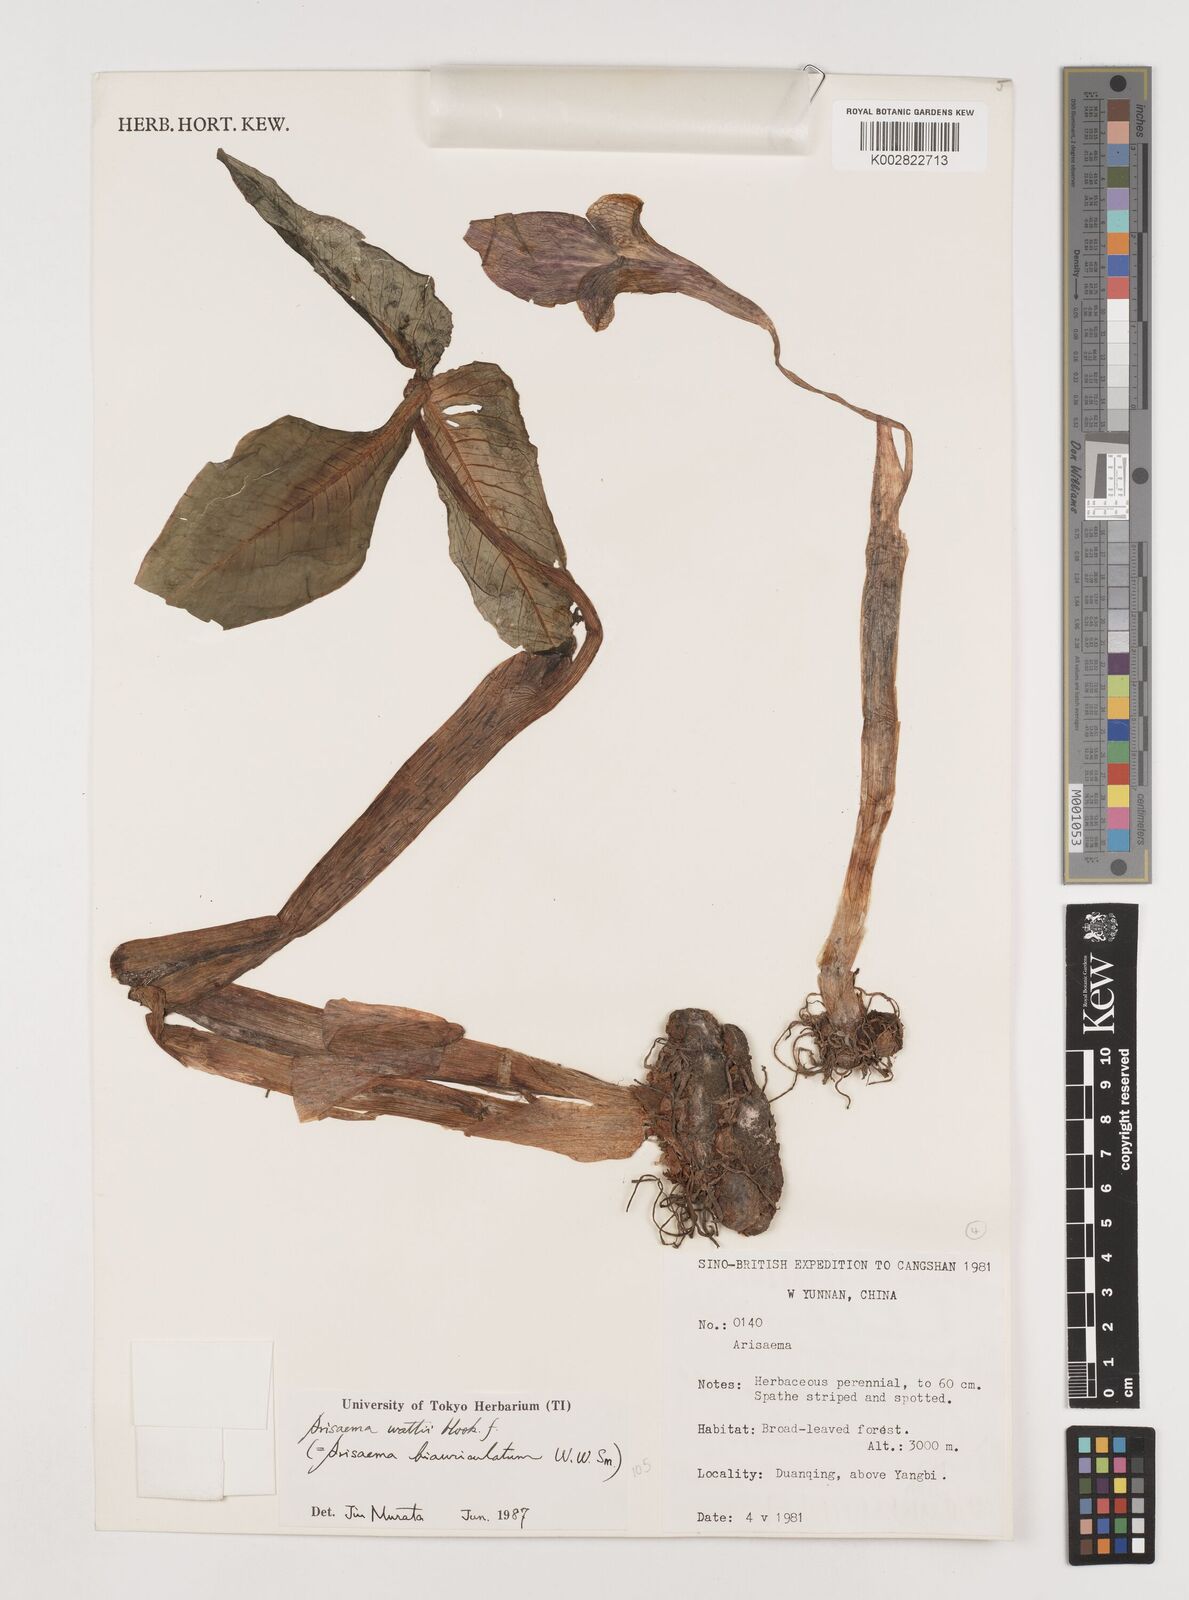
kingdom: Plantae
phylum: Tracheophyta
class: Liliopsida
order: Alismatales
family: Araceae
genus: Arisaema
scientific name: Arisaema wattii
